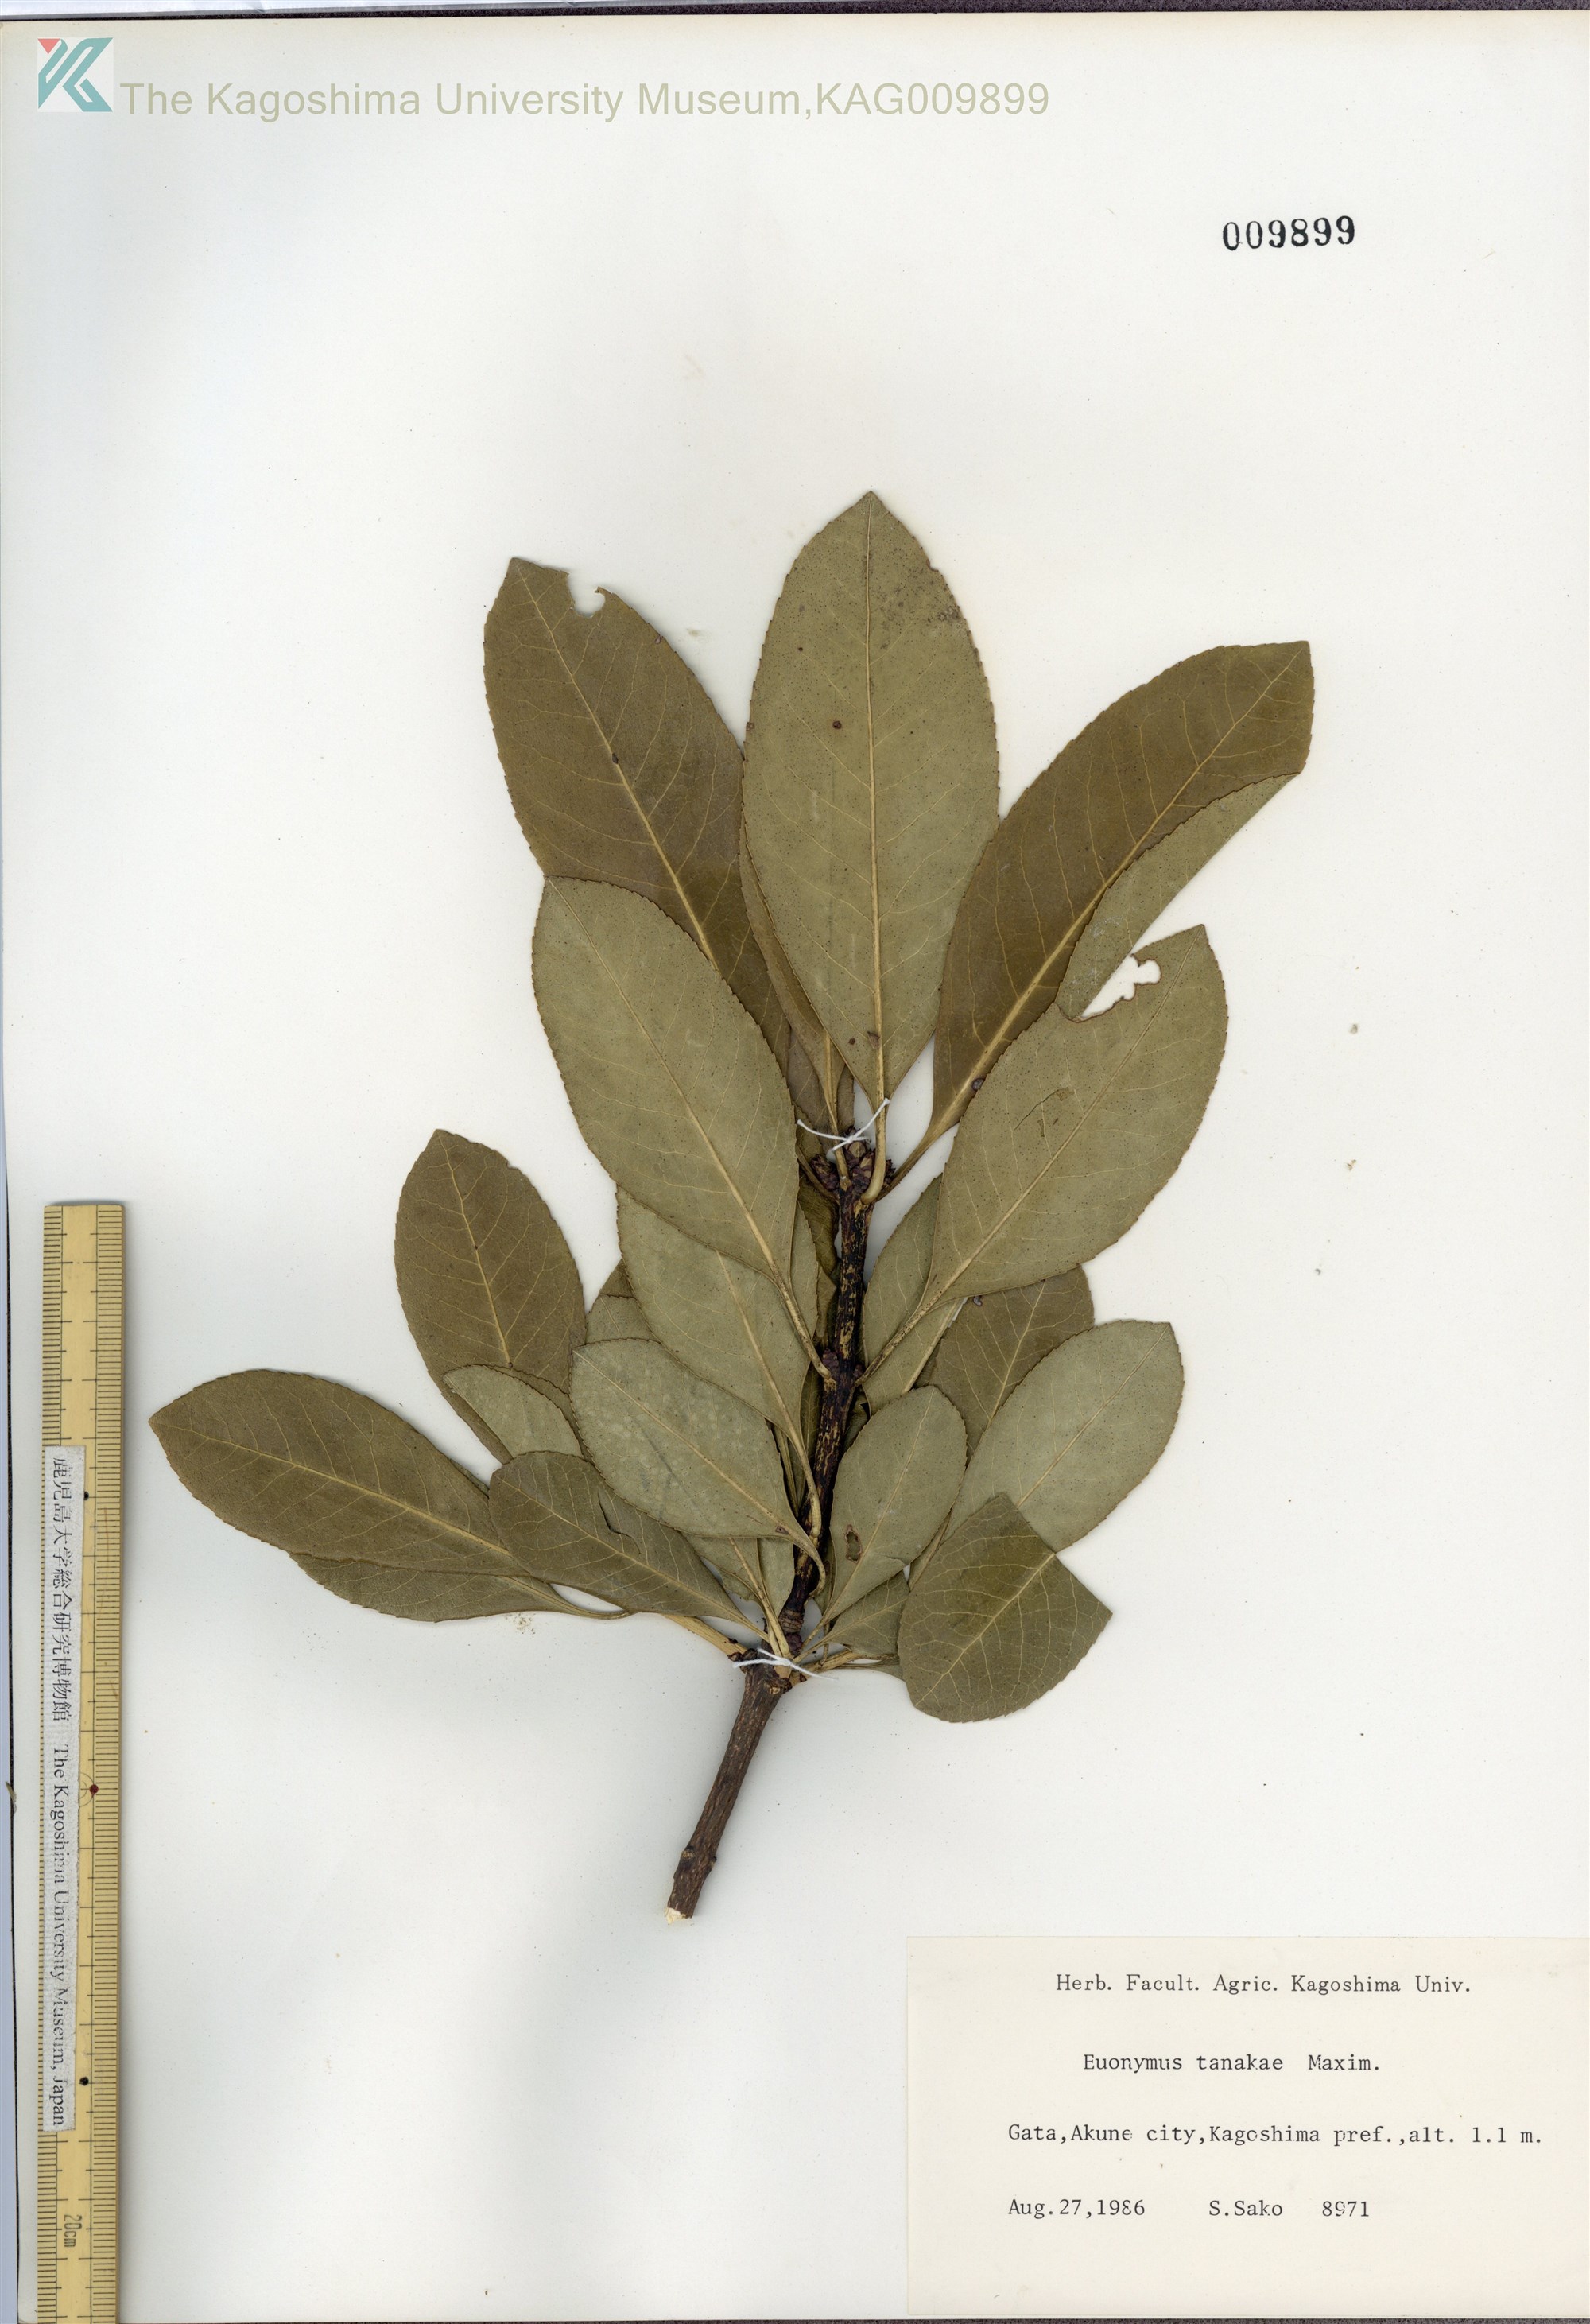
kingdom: Plantae
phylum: Tracheophyta
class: Magnoliopsida
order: Celastrales
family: Celastraceae
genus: Euonymus
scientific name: Euonymus carnosus
